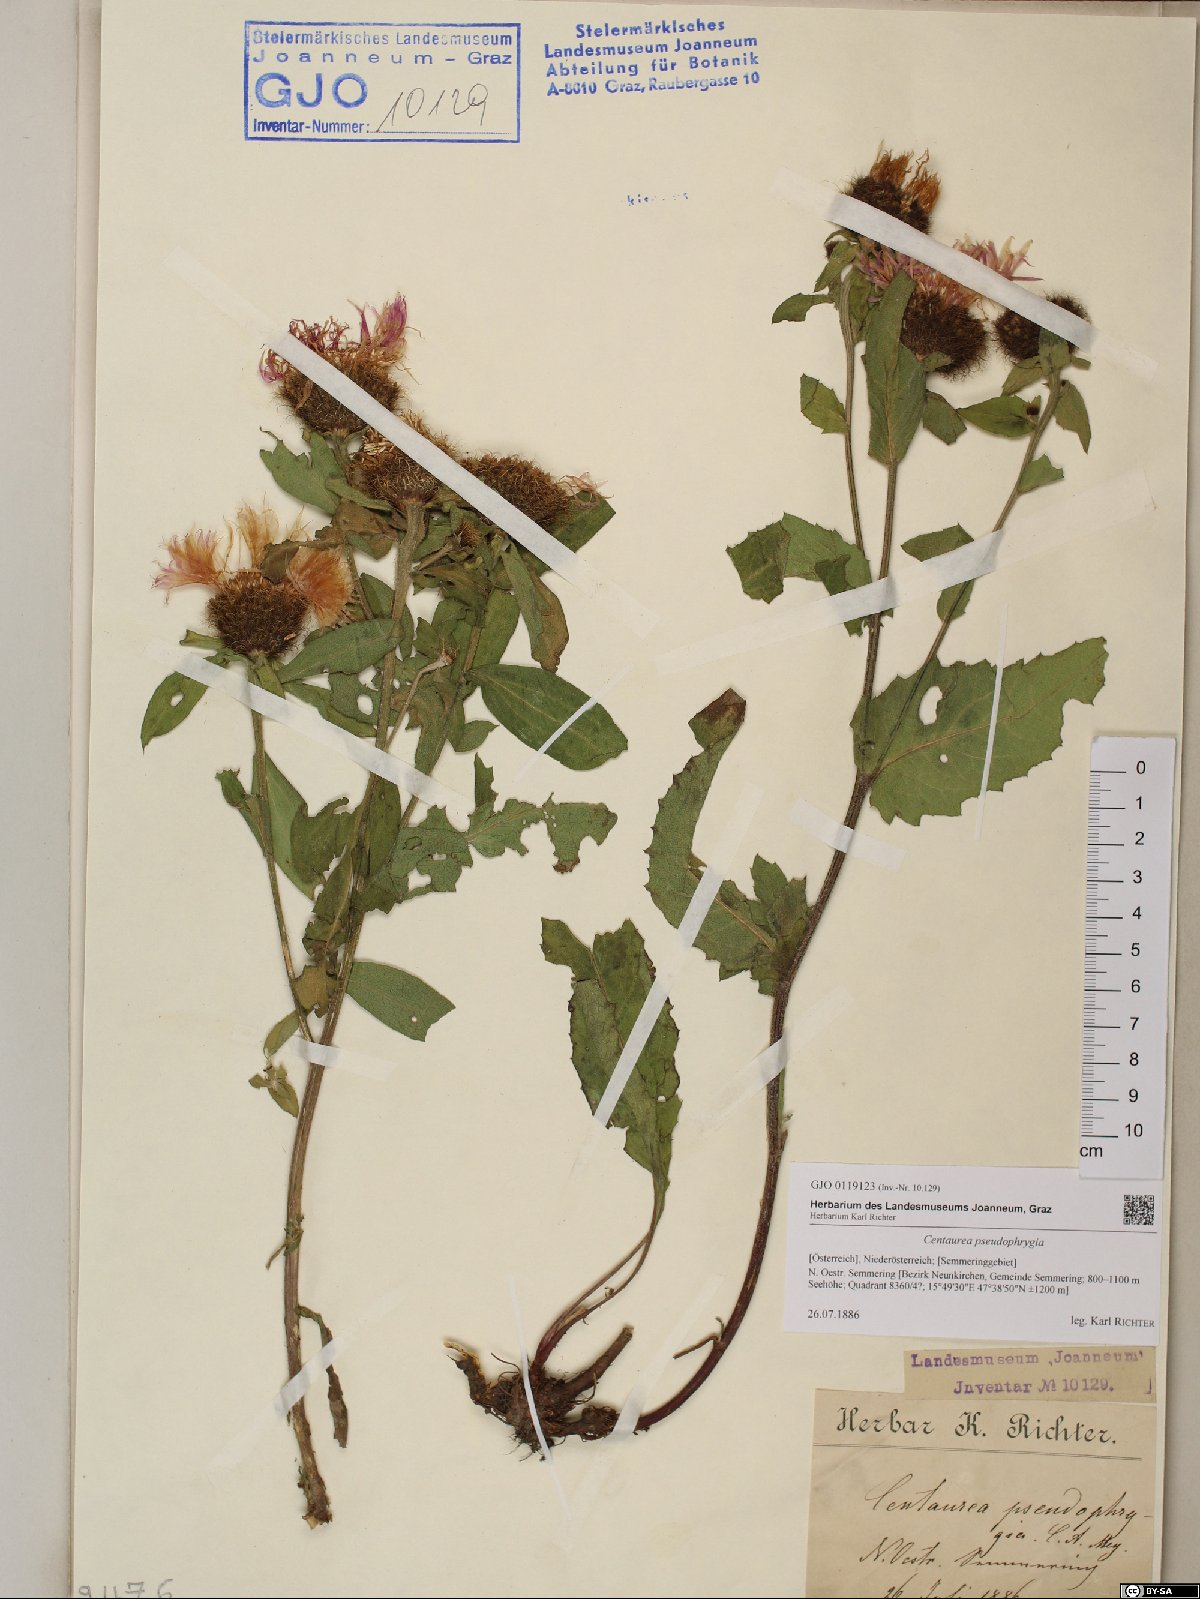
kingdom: Plantae
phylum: Tracheophyta
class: Magnoliopsida
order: Asterales
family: Asteraceae
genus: Centaurea
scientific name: Centaurea pseudophrygia
